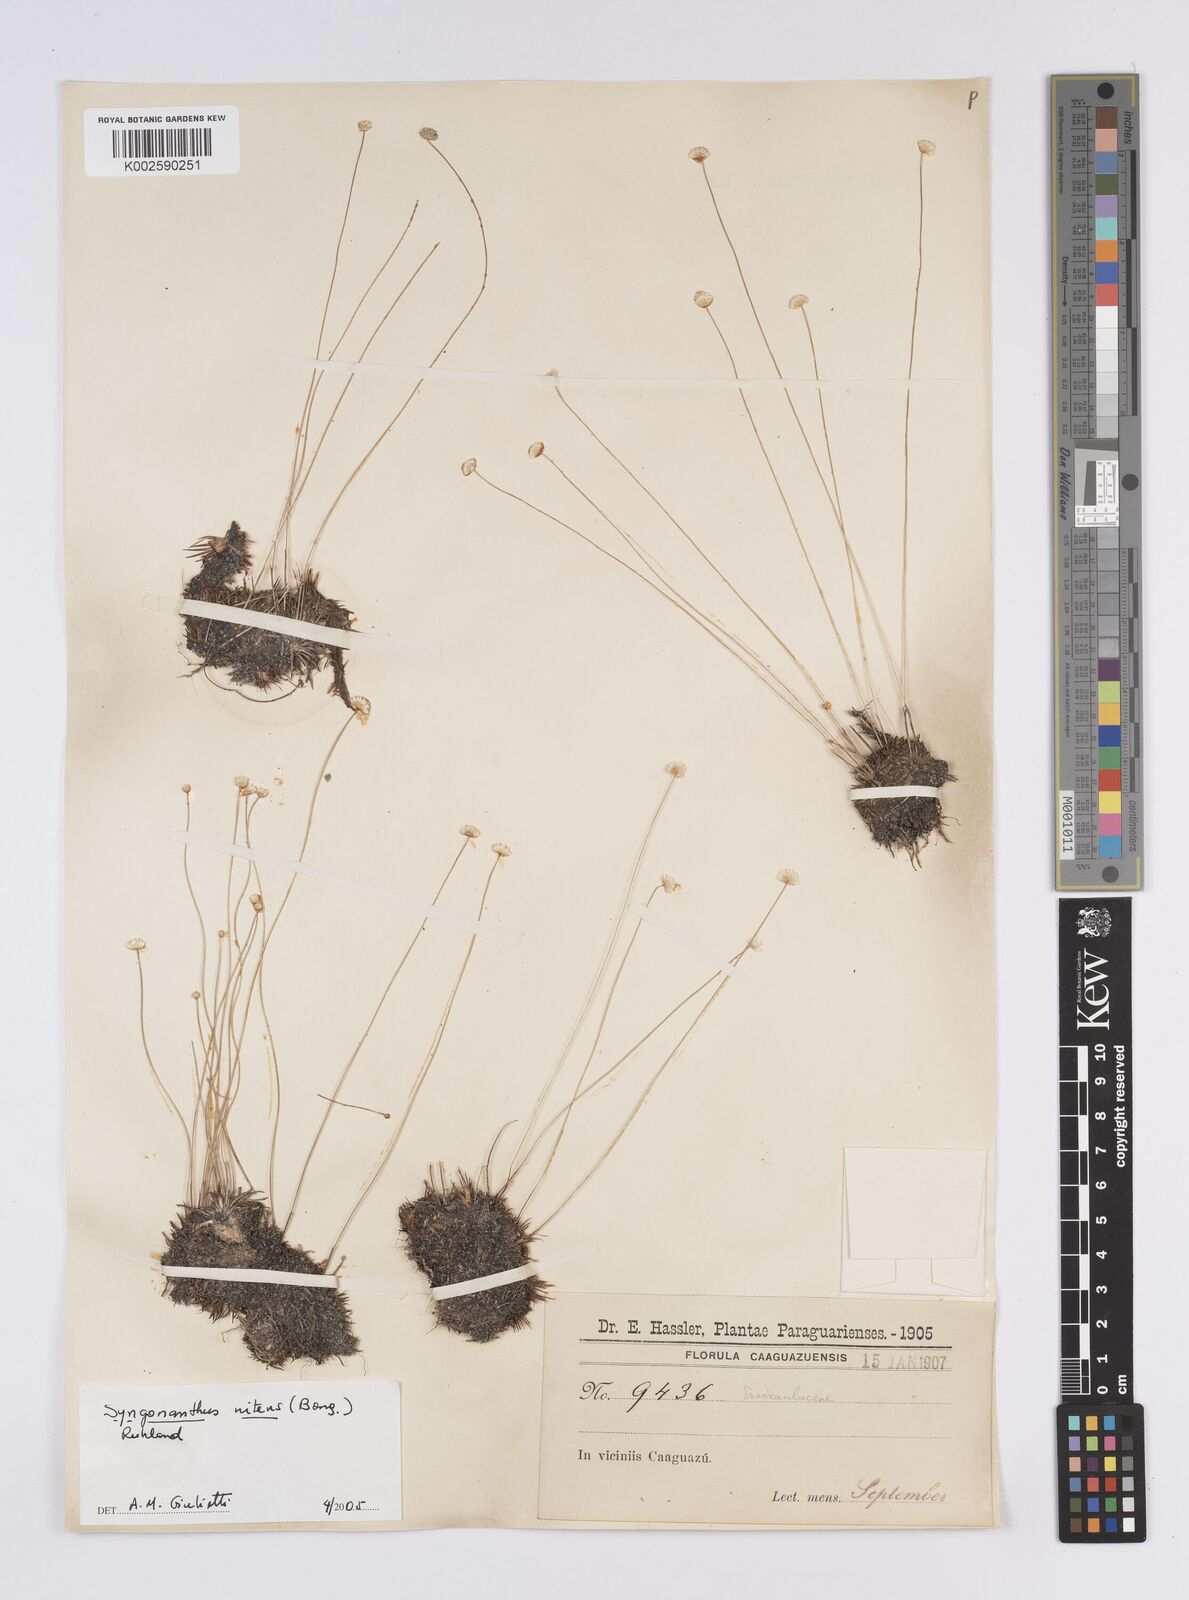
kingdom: Plantae
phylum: Tracheophyta
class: Liliopsida
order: Poales
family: Eriocaulaceae
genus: Syngonanthus
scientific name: Syngonanthus nitens
